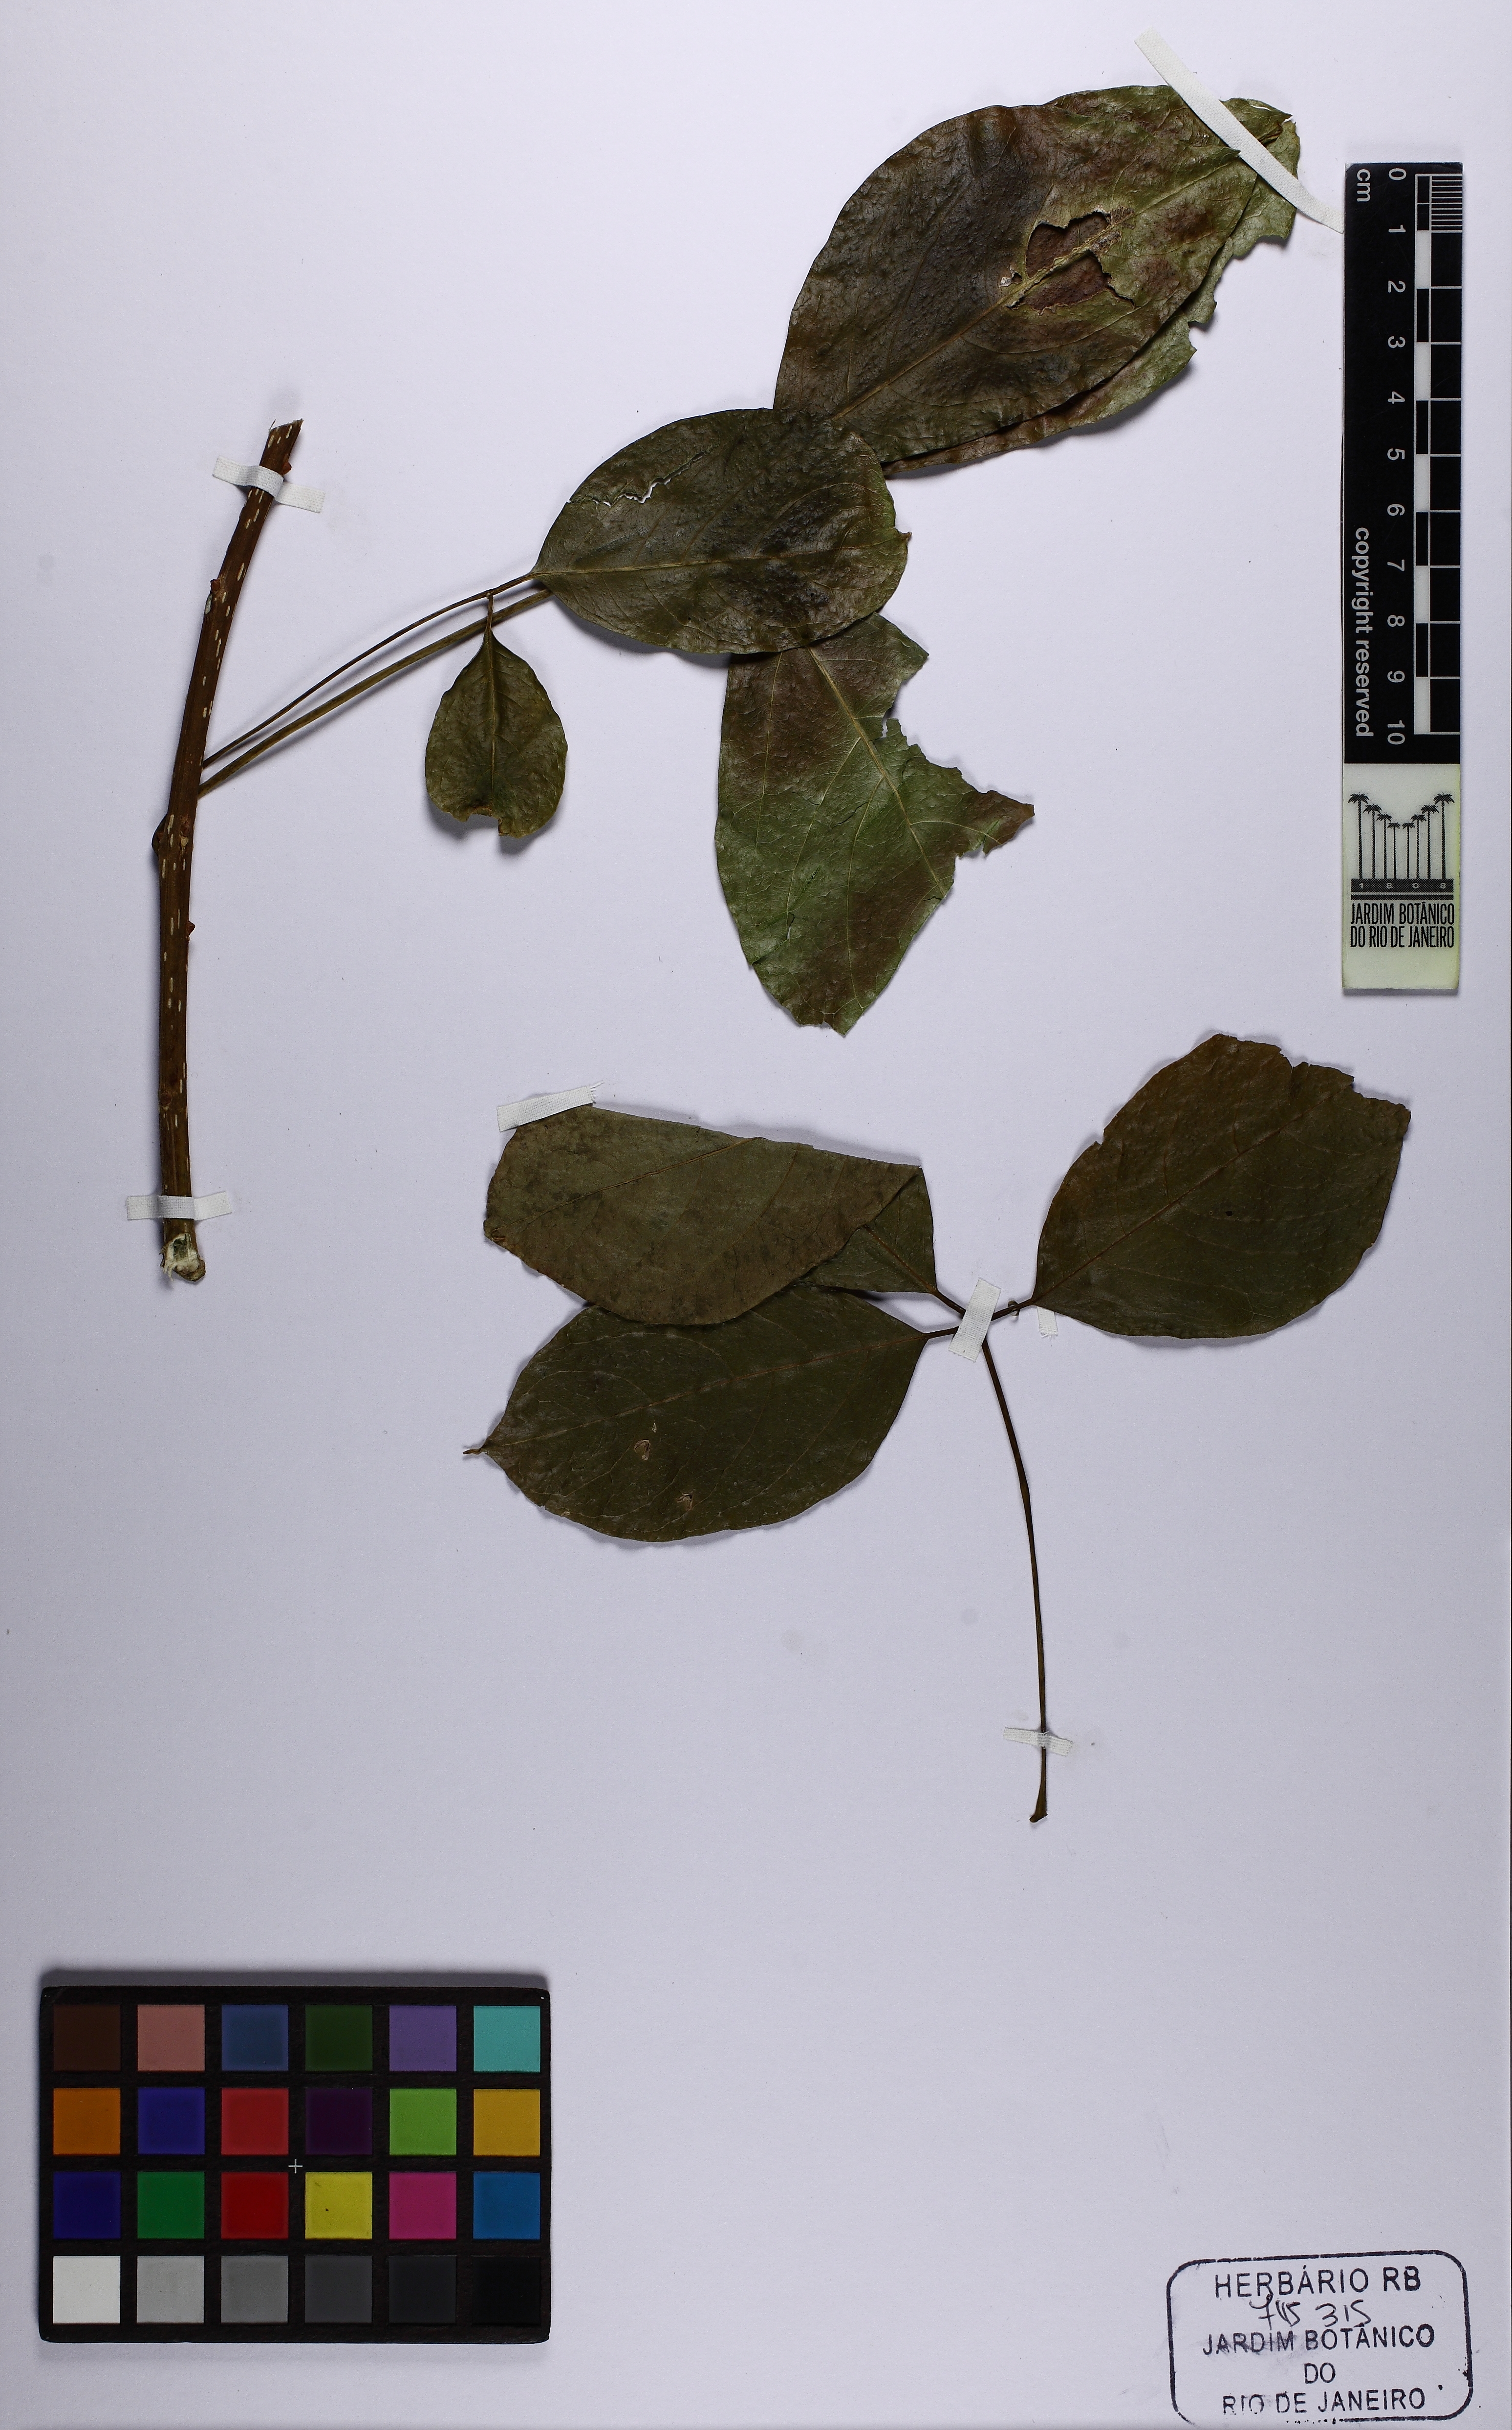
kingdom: Plantae
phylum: Tracheophyta
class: Magnoliopsida
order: Brassicales
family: Capparaceae
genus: Crateva
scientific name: Crateva tapia
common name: Garlic-pear
